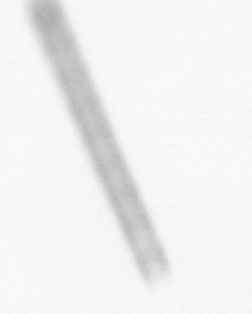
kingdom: Chromista
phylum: Ochrophyta
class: Bacillariophyceae
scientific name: Bacillariophyceae
